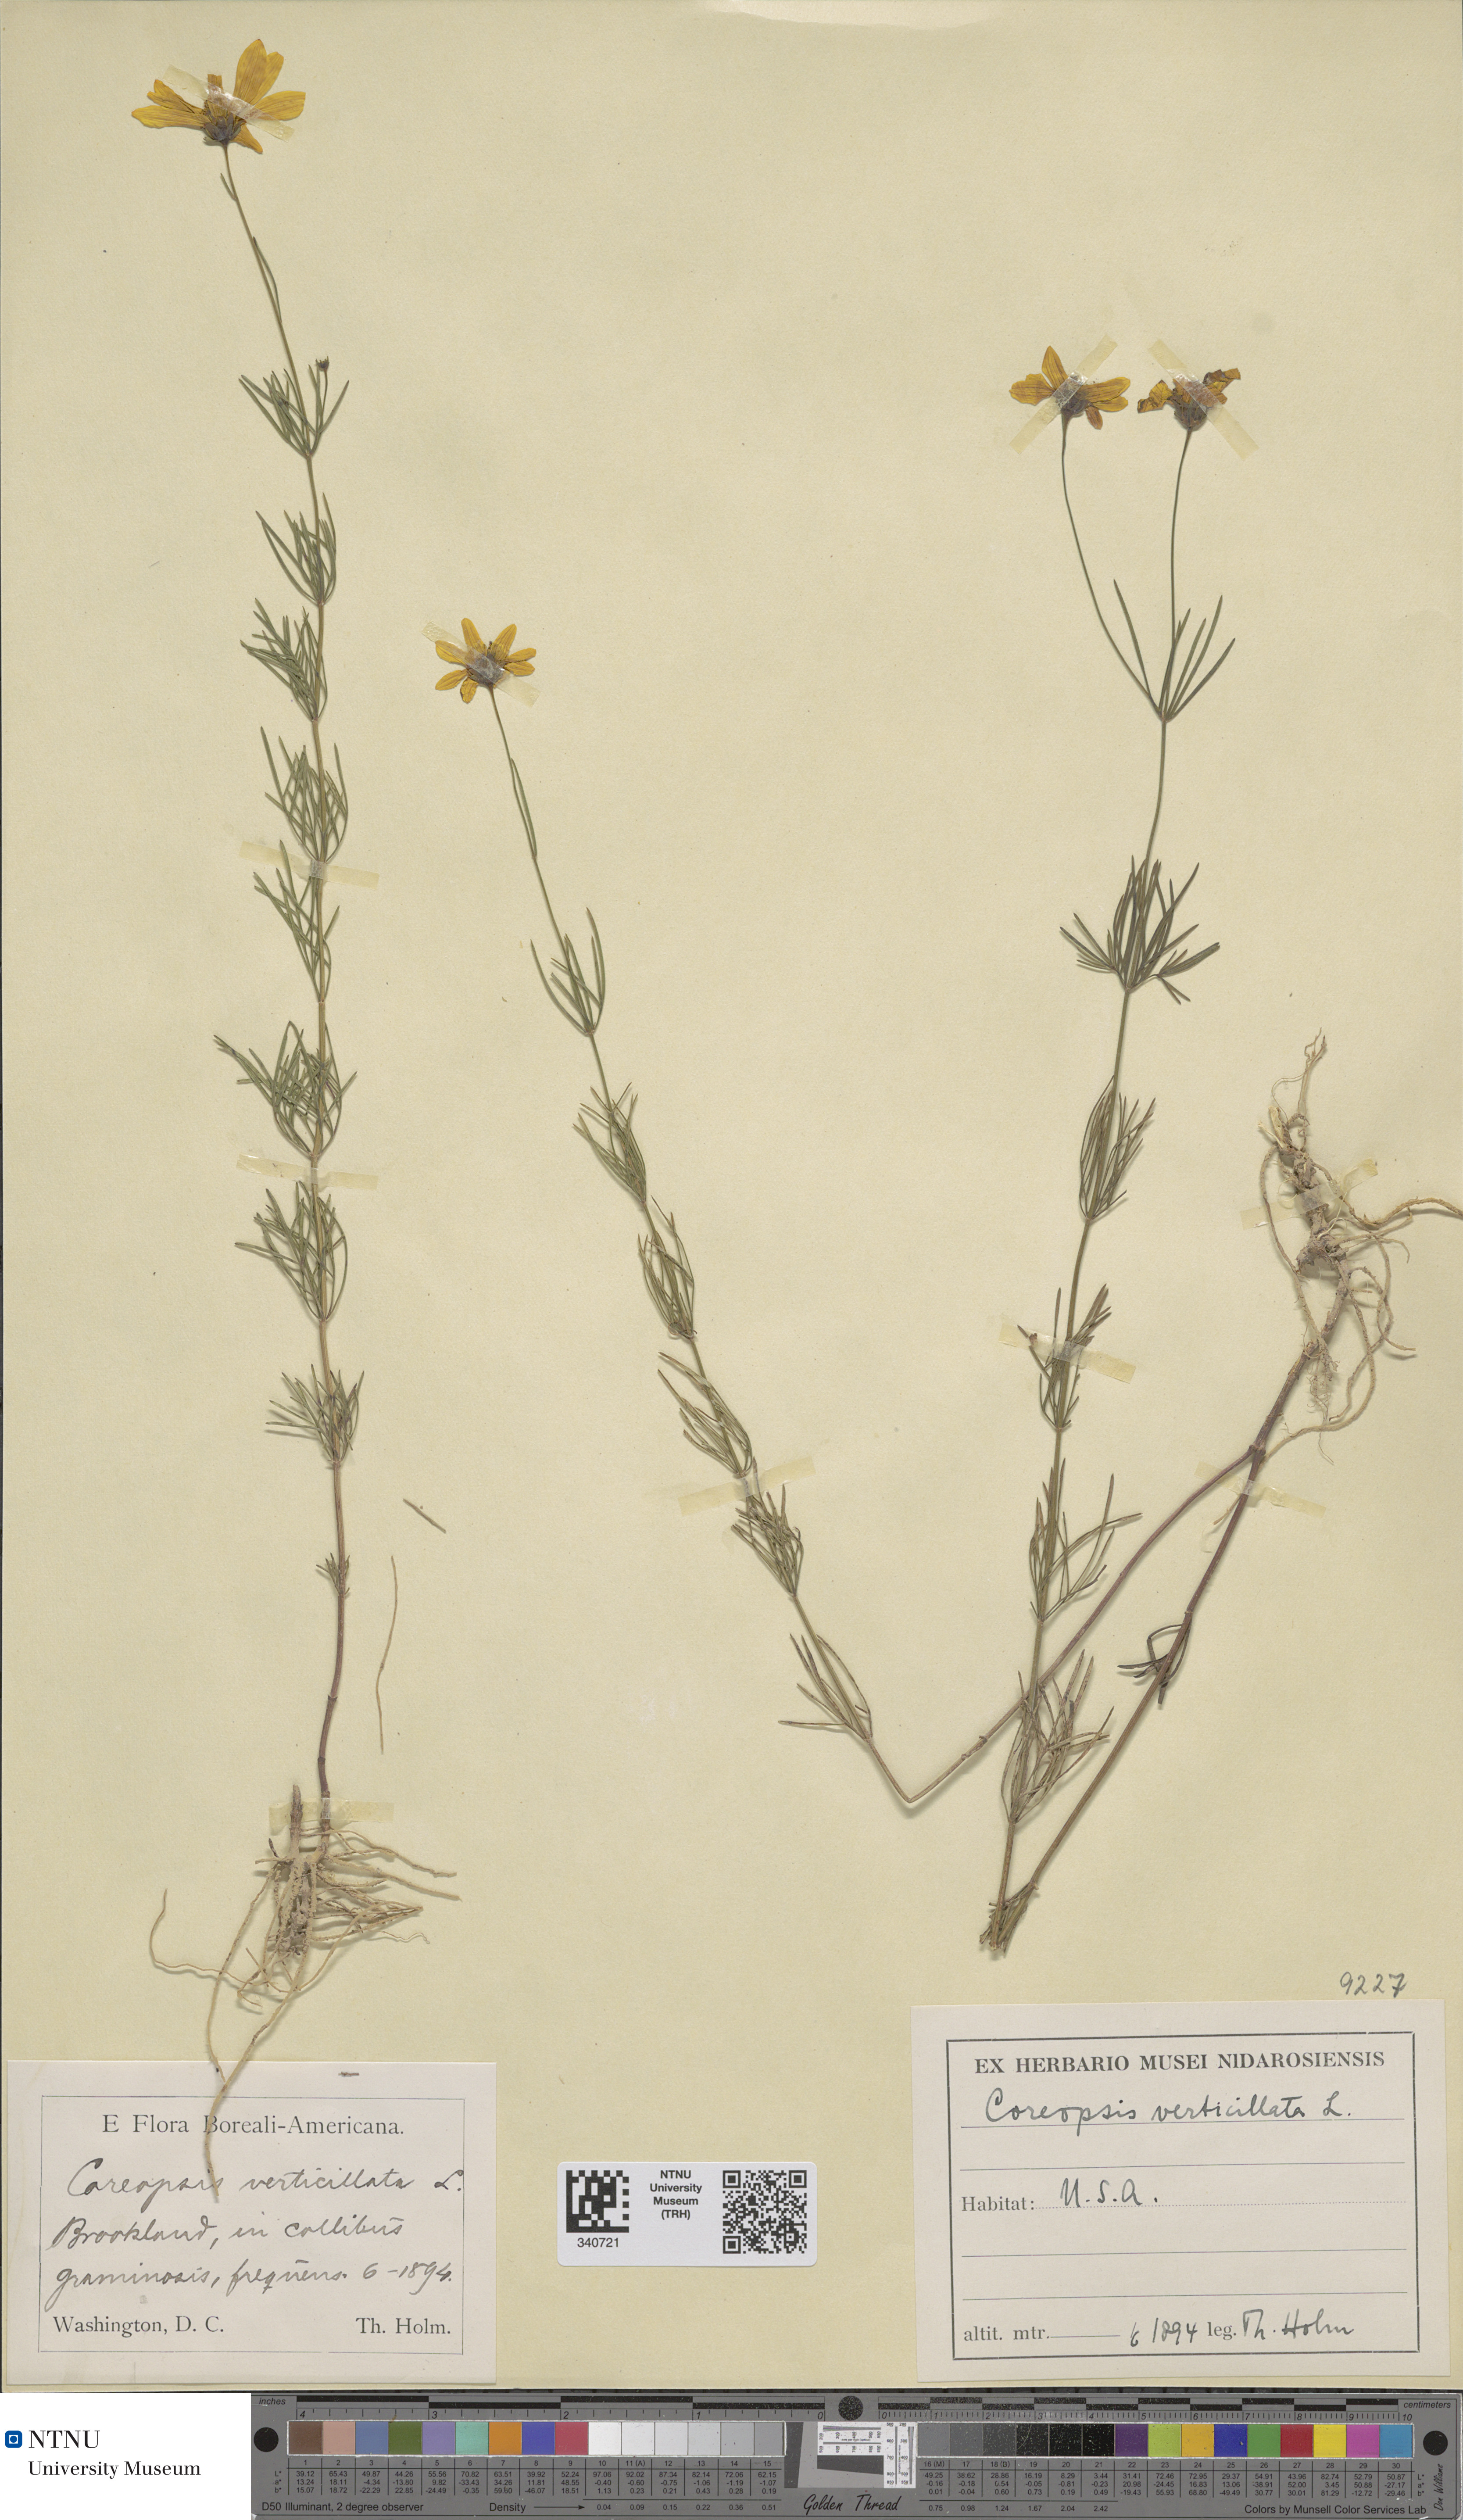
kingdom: Plantae
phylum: Tracheophyta
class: Magnoliopsida
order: Asterales
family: Asteraceae
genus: Coreopsis
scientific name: Coreopsis verticillata
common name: Whorled tickseed
